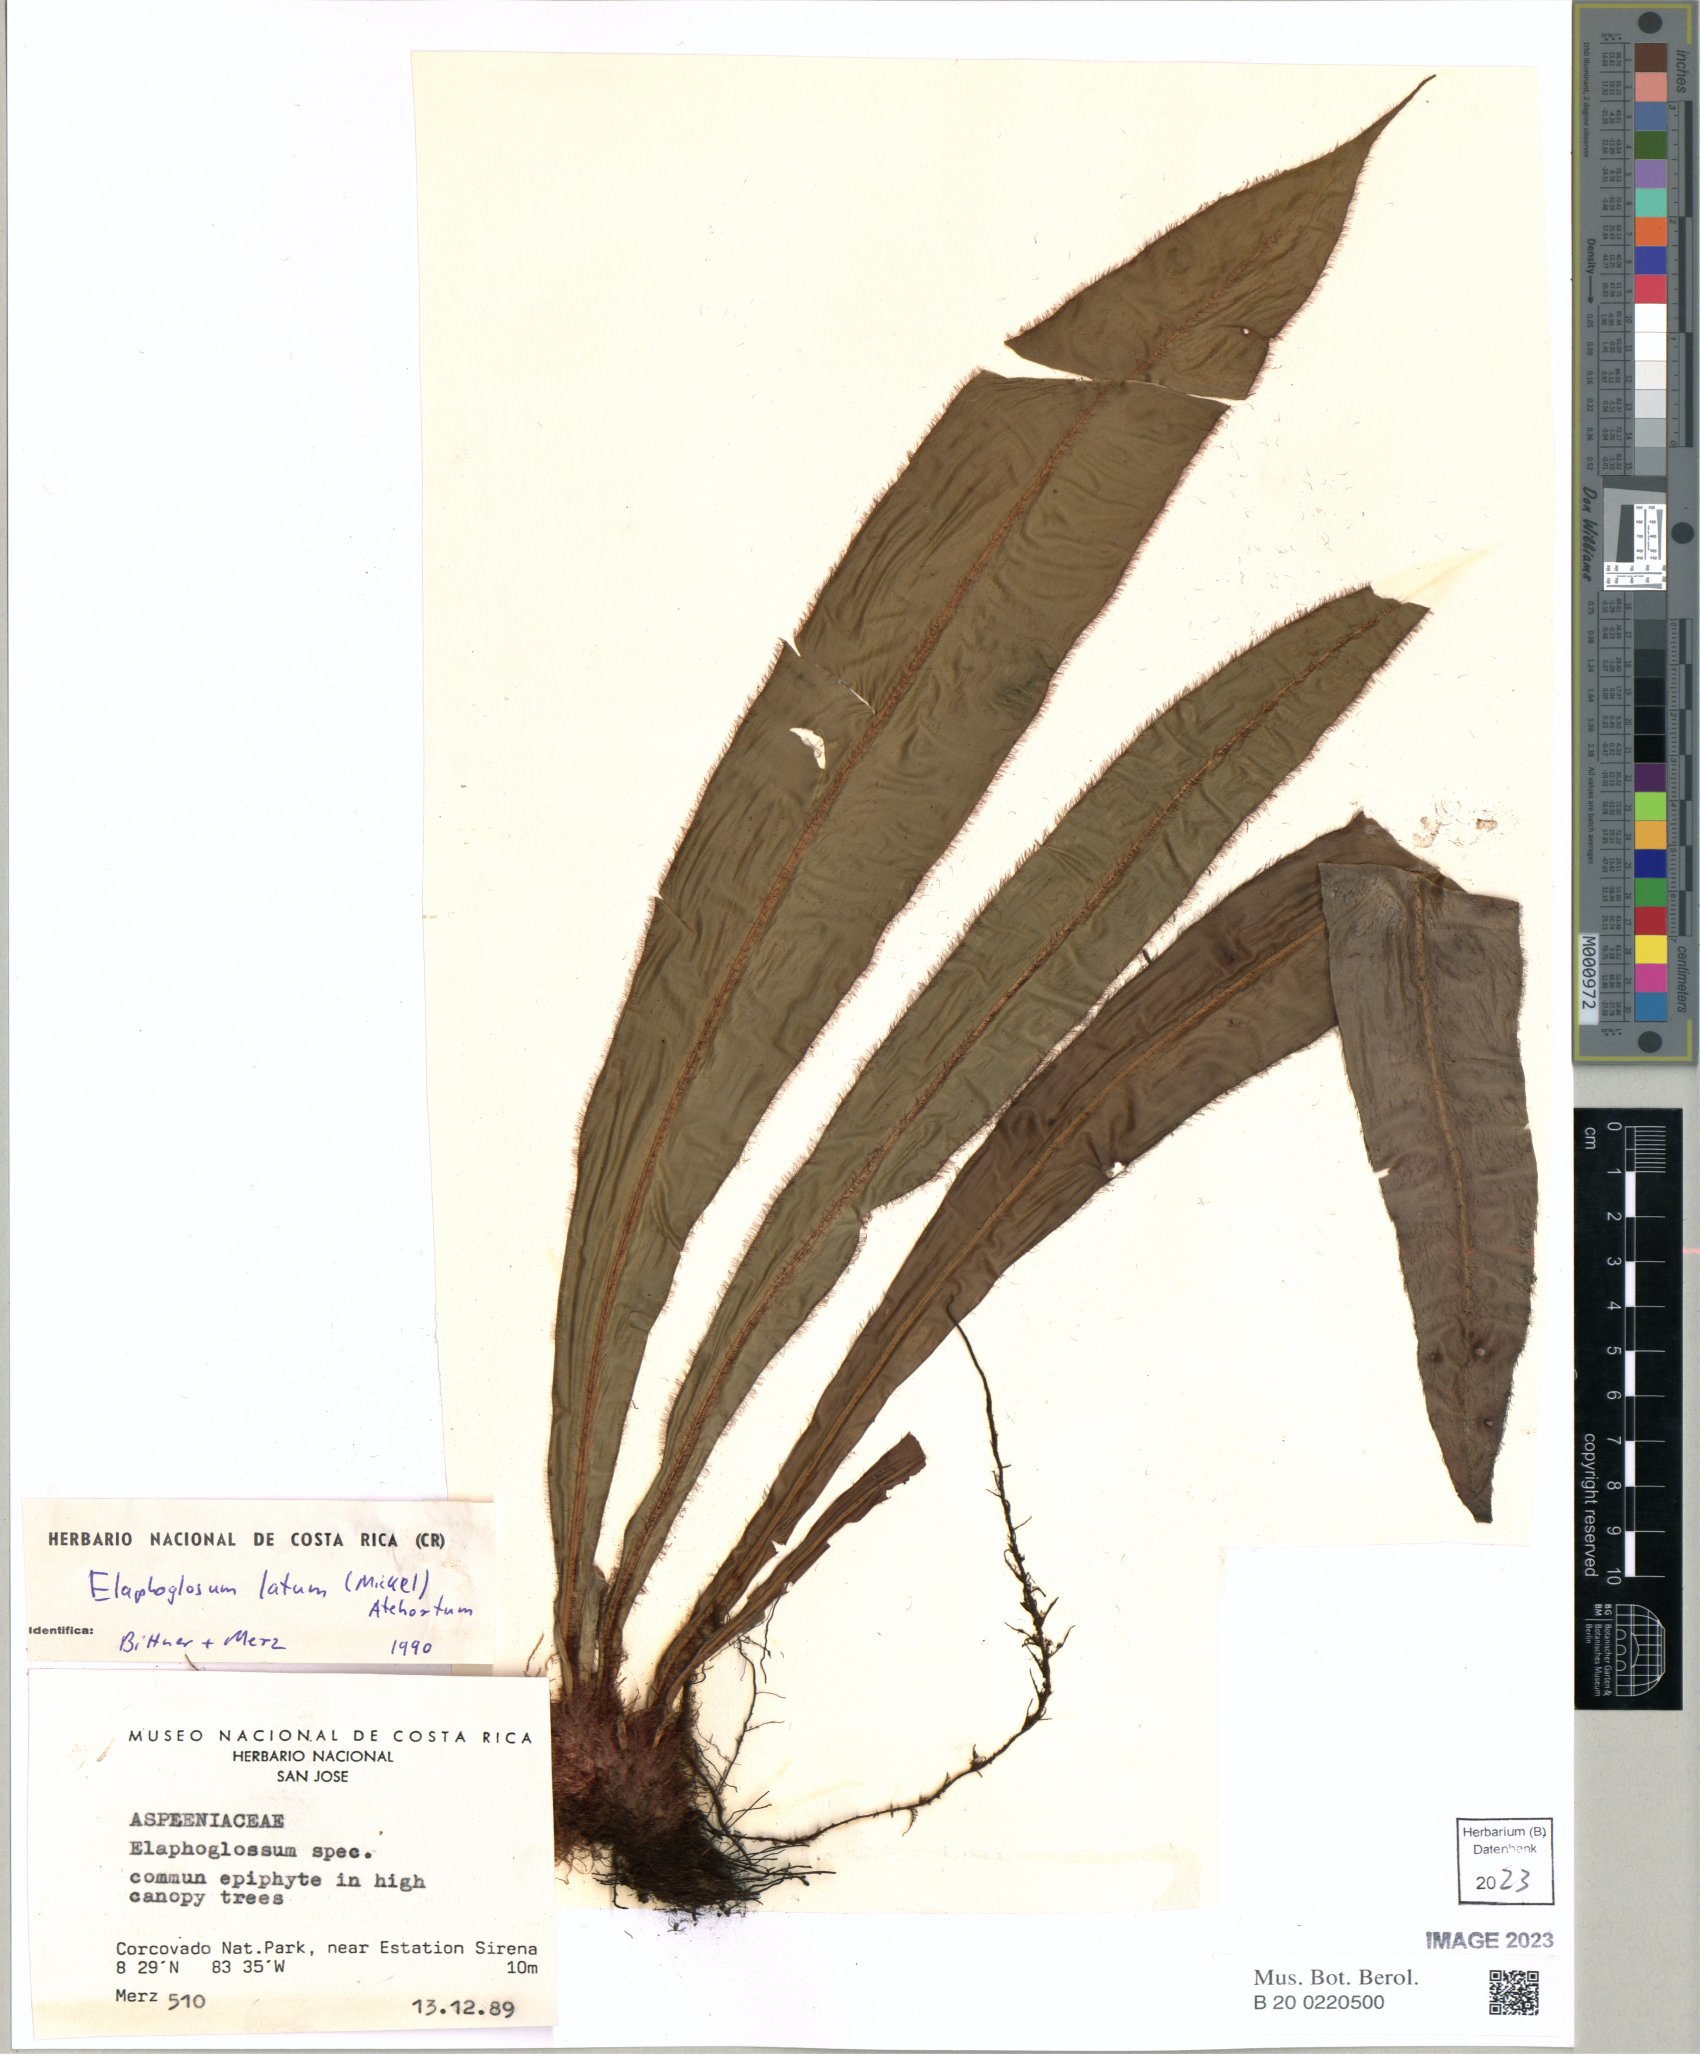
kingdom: Plantae
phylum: Tracheophyta
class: Polypodiopsida
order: Polypodiales
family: Dryopteridaceae
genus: Elaphoglossum
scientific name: Elaphoglossum latum
